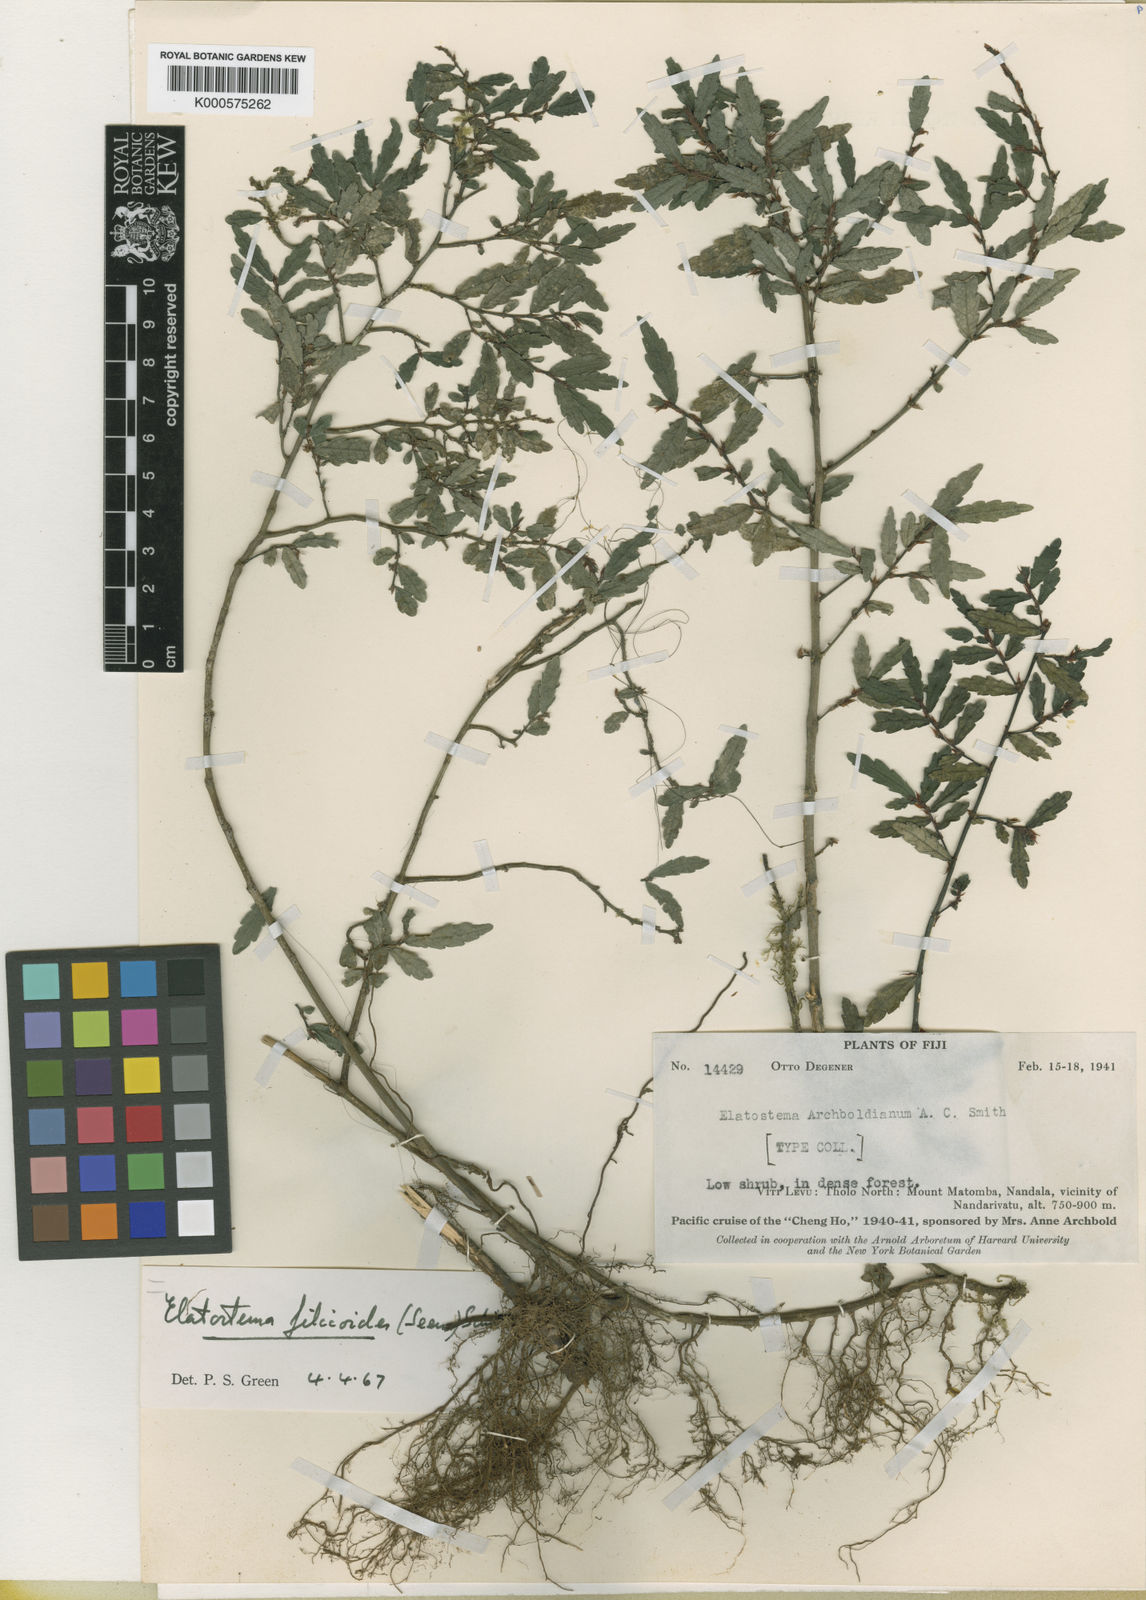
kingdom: Plantae
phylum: Tracheophyta
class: Magnoliopsida
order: Rosales
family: Urticaceae
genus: Elatostema
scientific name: Elatostema
